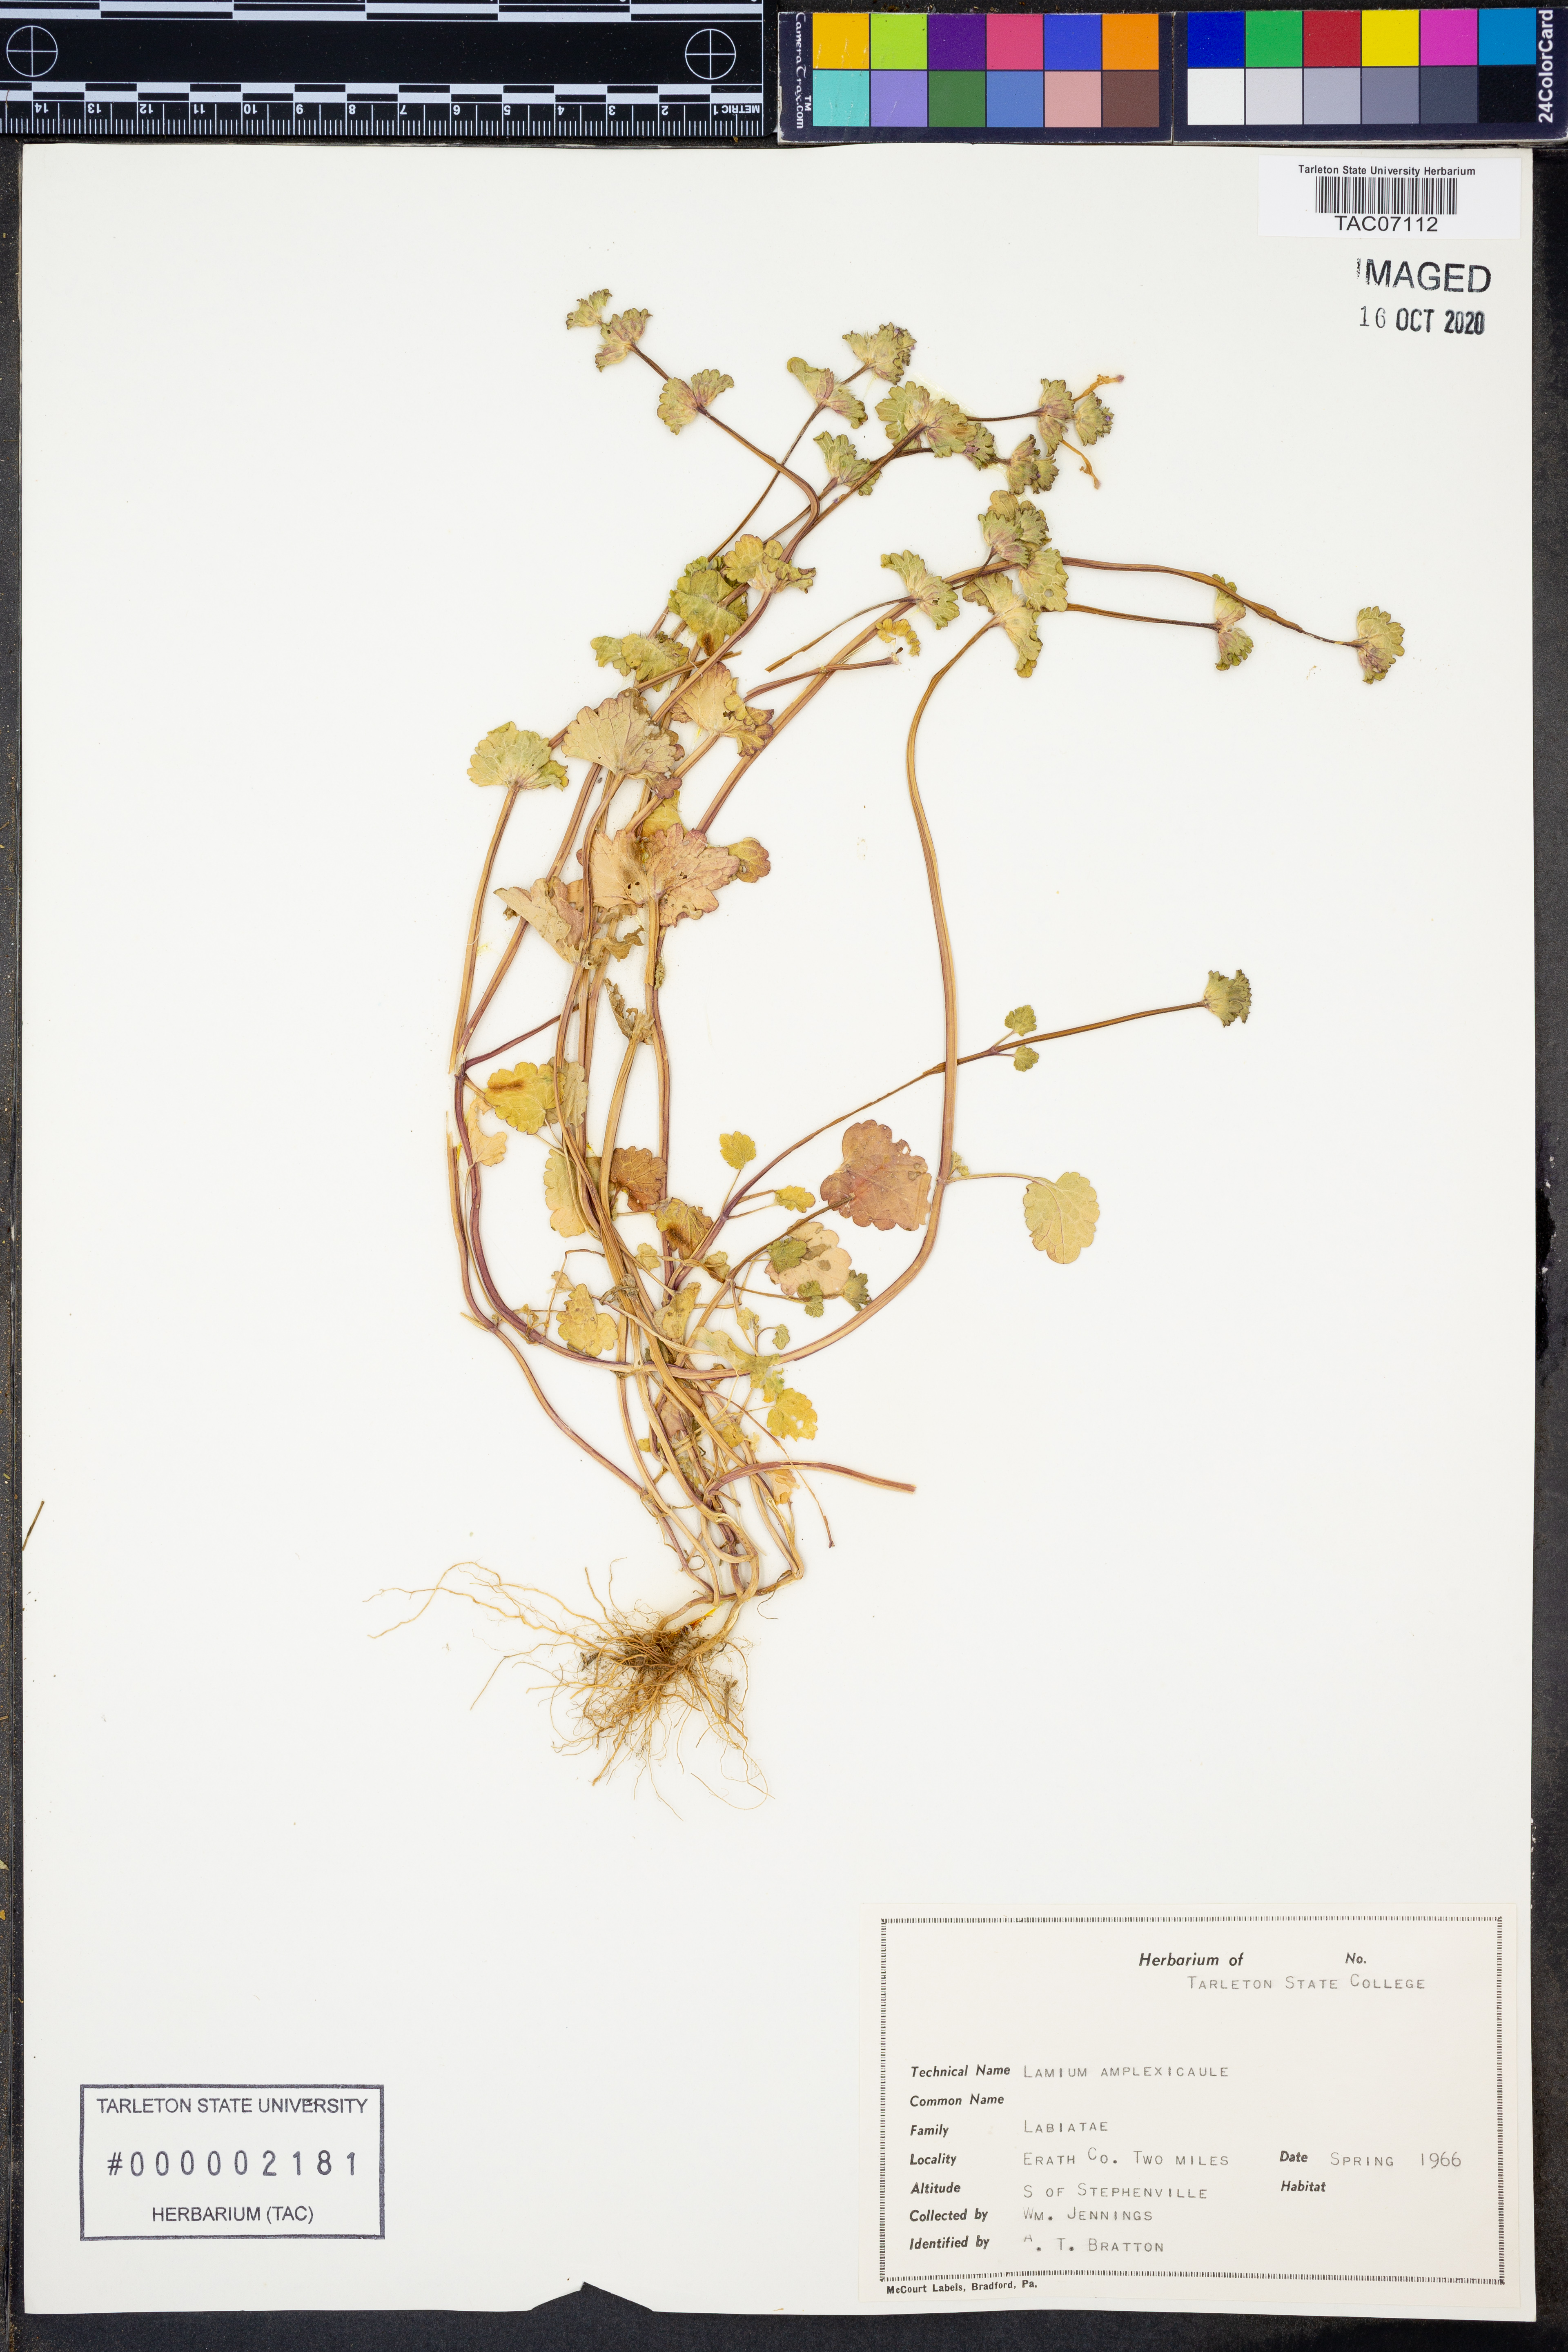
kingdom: Plantae
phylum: Tracheophyta
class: Magnoliopsida
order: Lamiales
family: Lamiaceae
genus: Lamium
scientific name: Lamium amplexicaule
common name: Henbit dead-nettle
